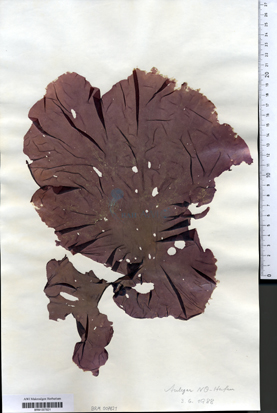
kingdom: Plantae
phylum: Rhodophyta
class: Bangiophyceae
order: Bangiales
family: Bangiaceae
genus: Porphyra
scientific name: Porphyra umbilicalis
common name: Purple laver
